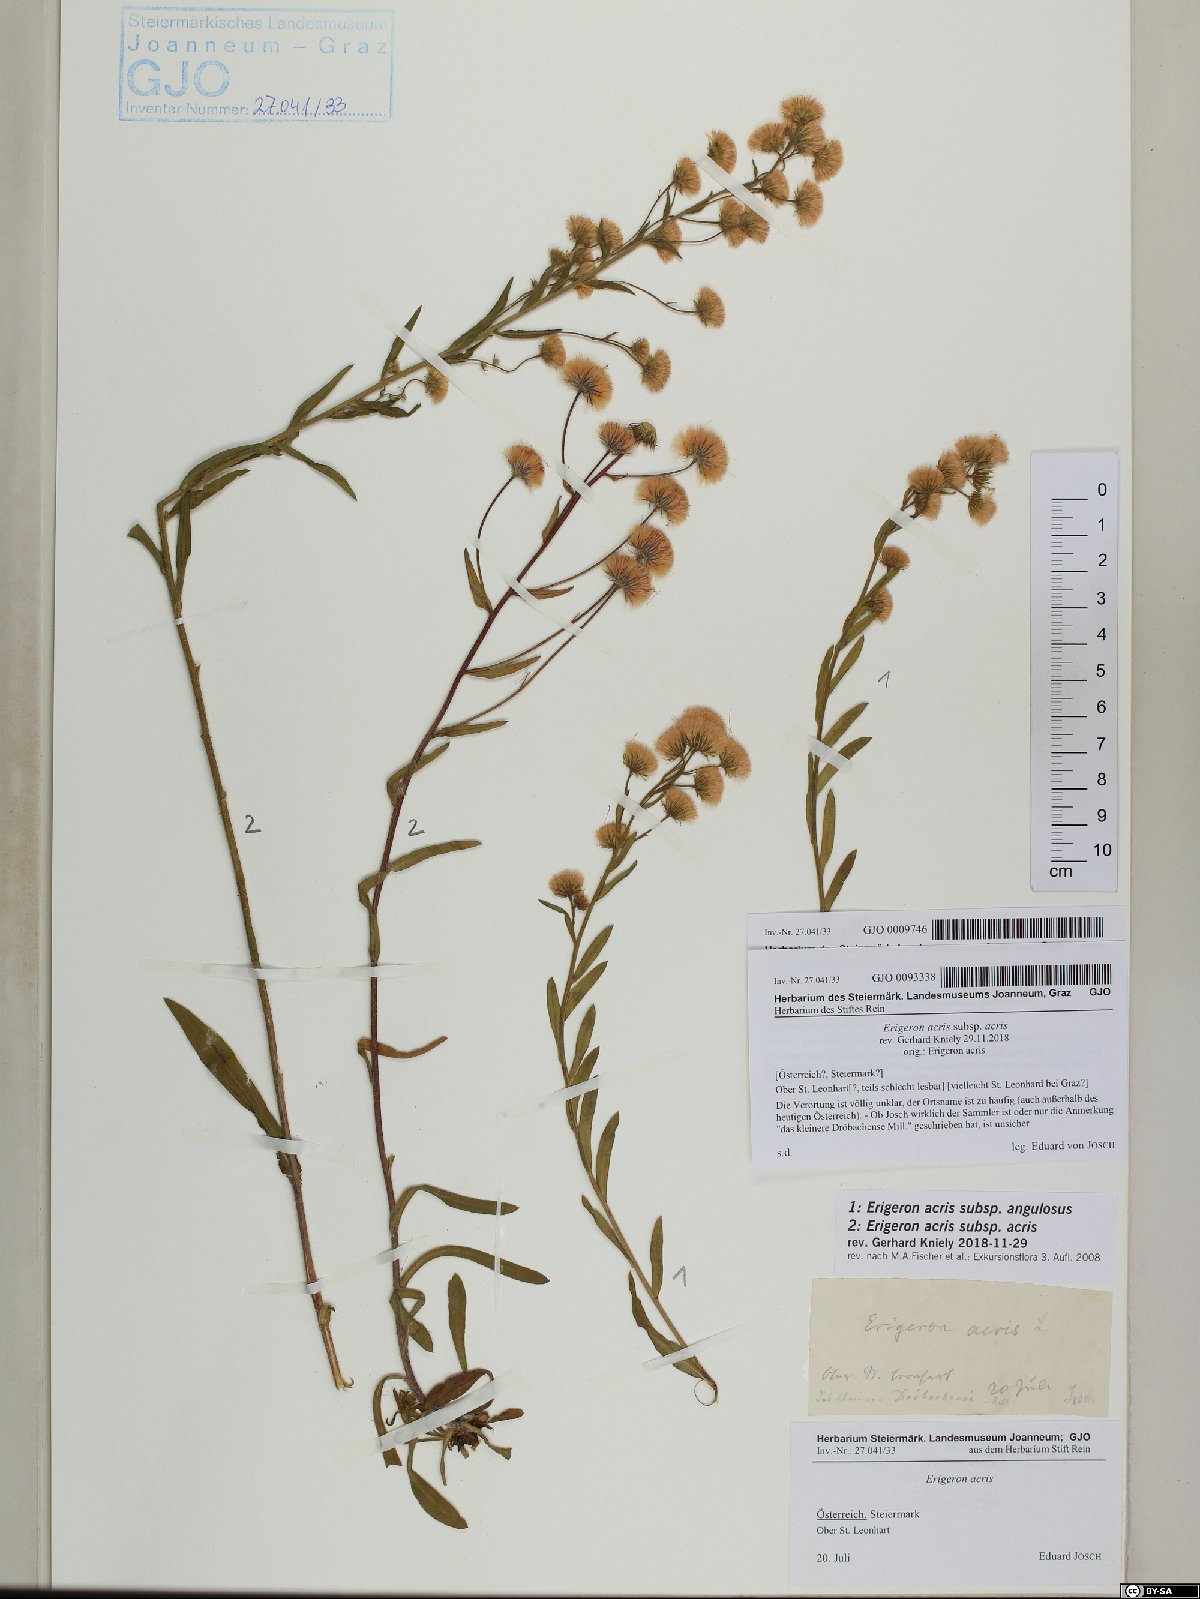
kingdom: Plantae
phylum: Tracheophyta
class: Magnoliopsida
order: Asterales
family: Asteraceae
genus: Erigeron
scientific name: Erigeron acris
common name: Blue fleabane
